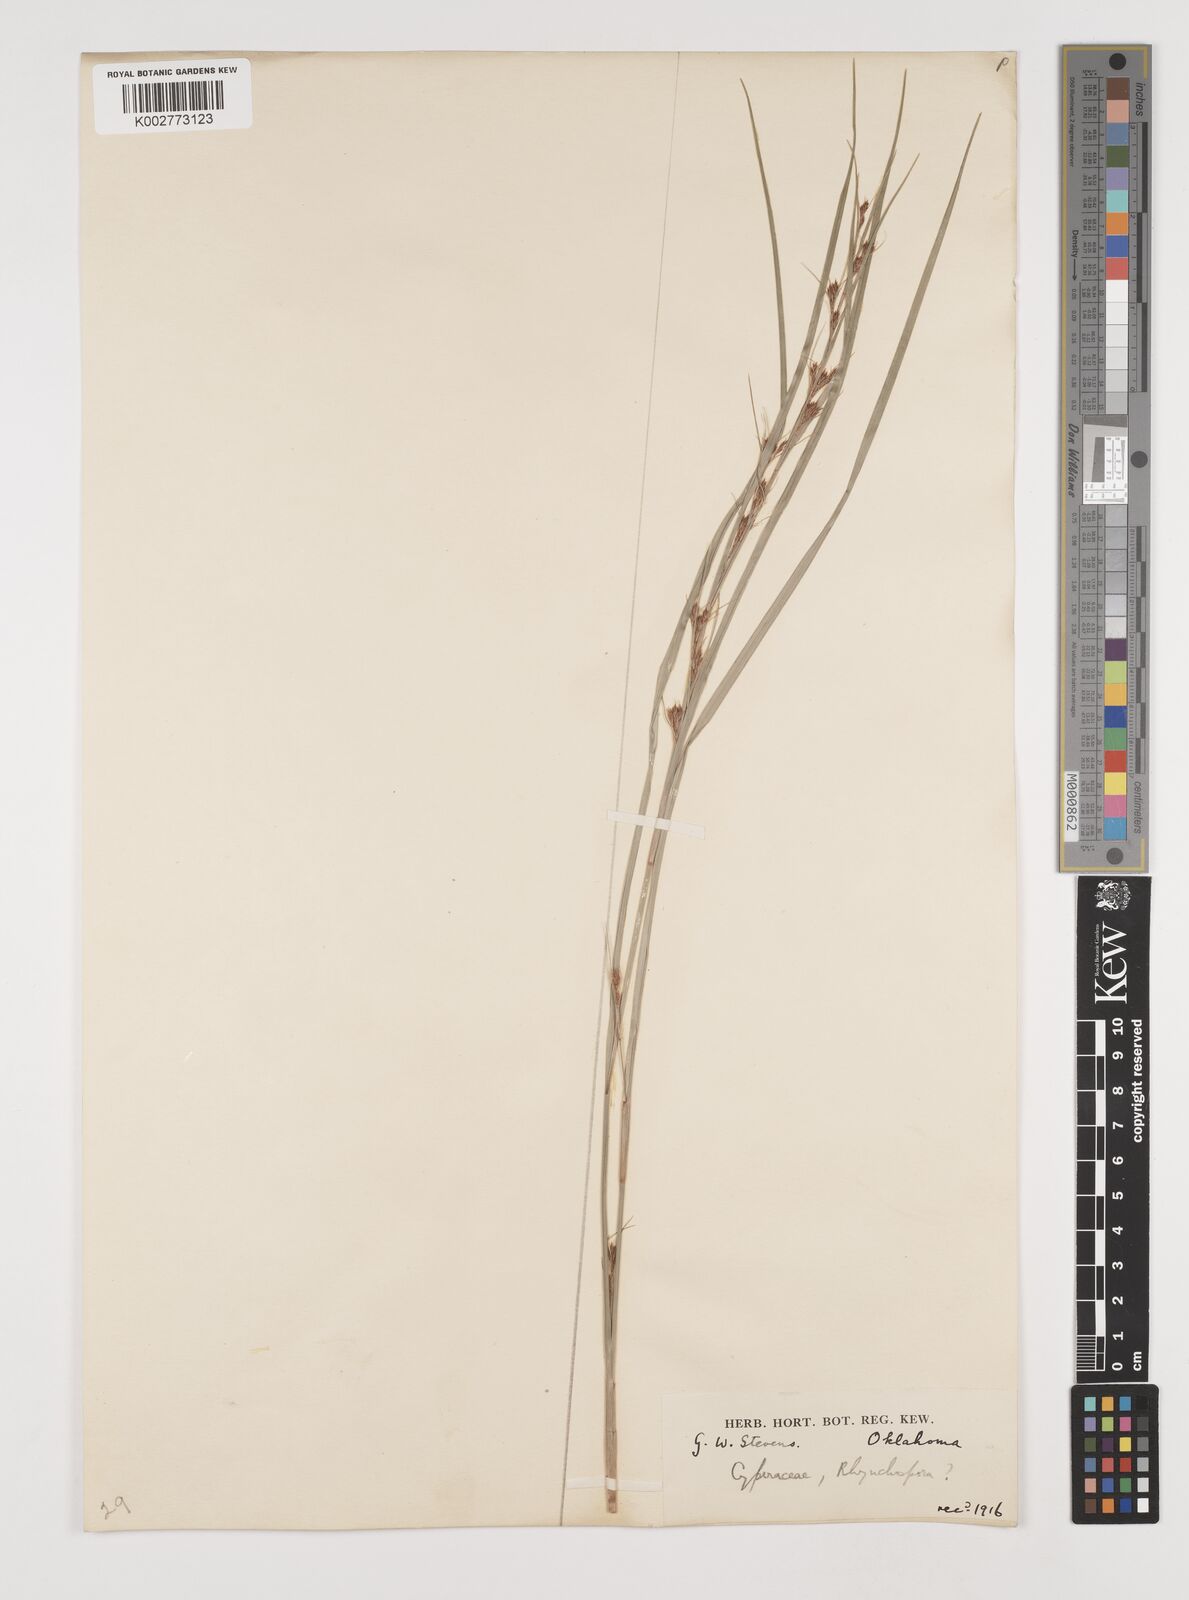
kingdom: Plantae
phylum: Tracheophyta
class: Liliopsida
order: Poales
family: Cyperaceae
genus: Rhynchospora
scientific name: Rhynchospora
